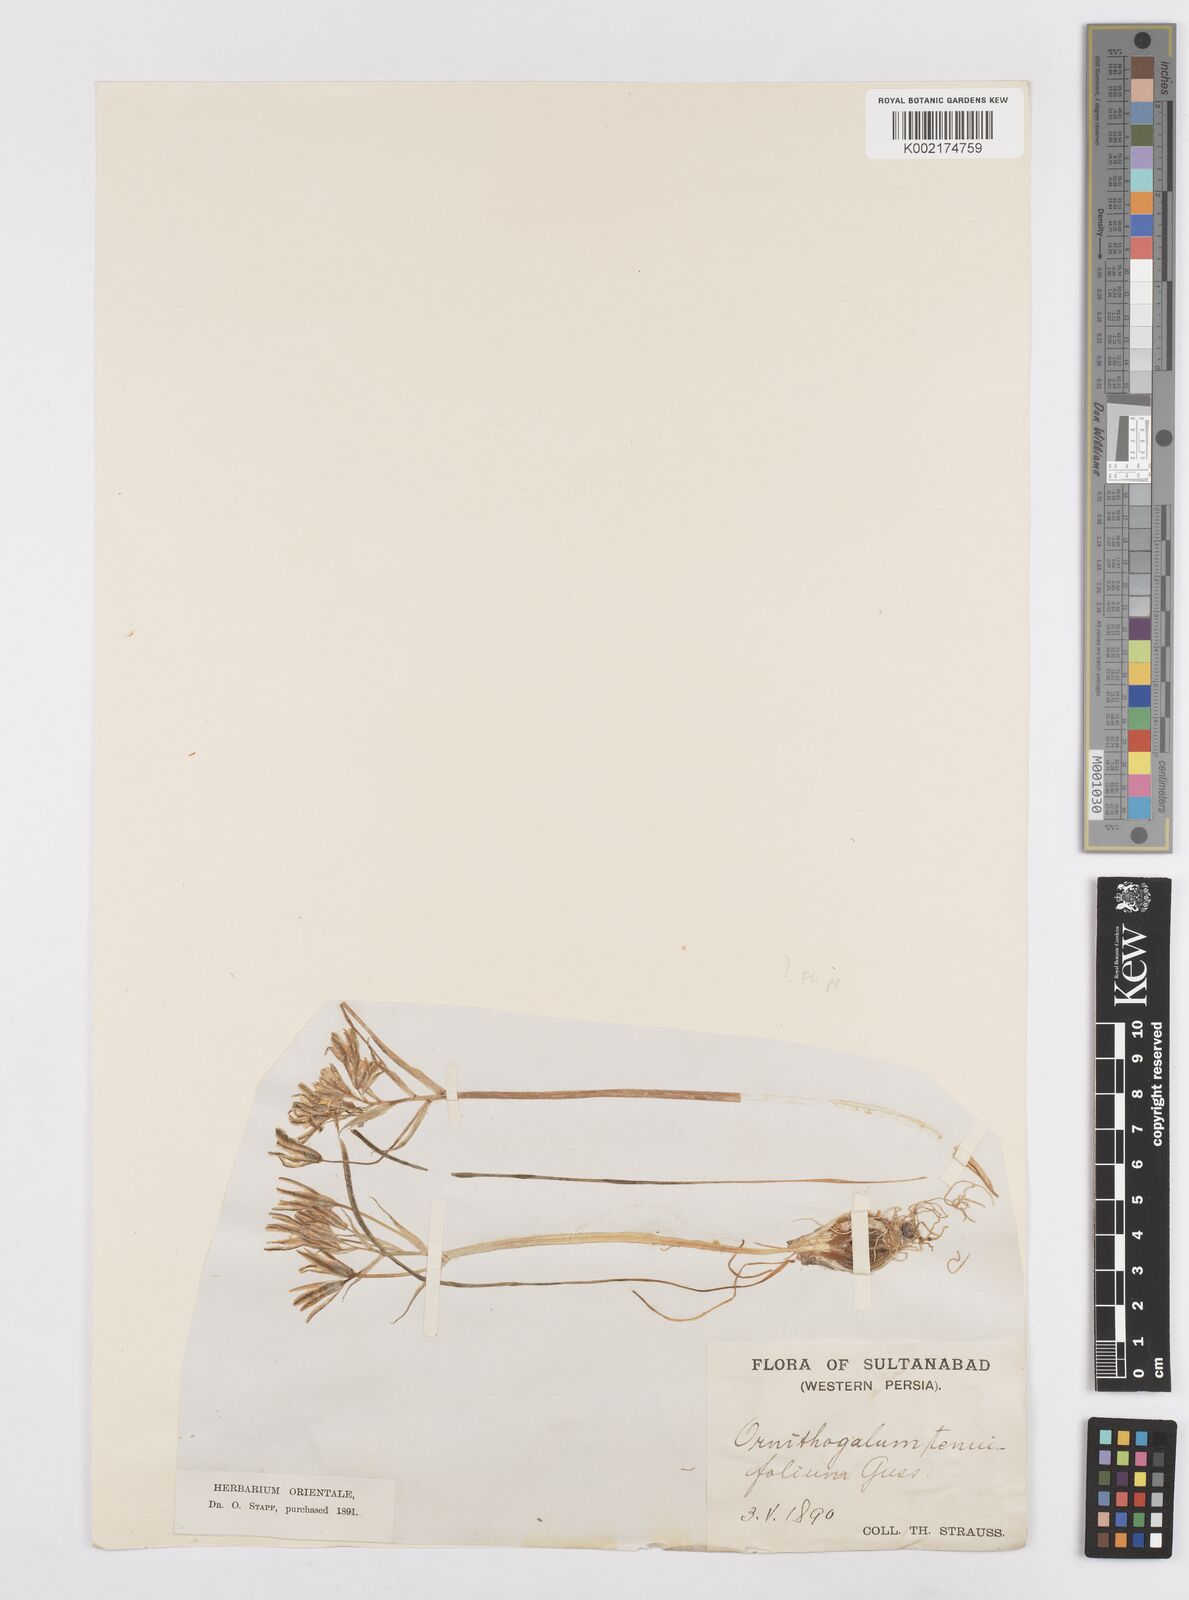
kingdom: Plantae
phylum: Tracheophyta
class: Liliopsida
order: Asparagales
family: Asparagaceae
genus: Ornithogalum
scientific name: Ornithogalum
